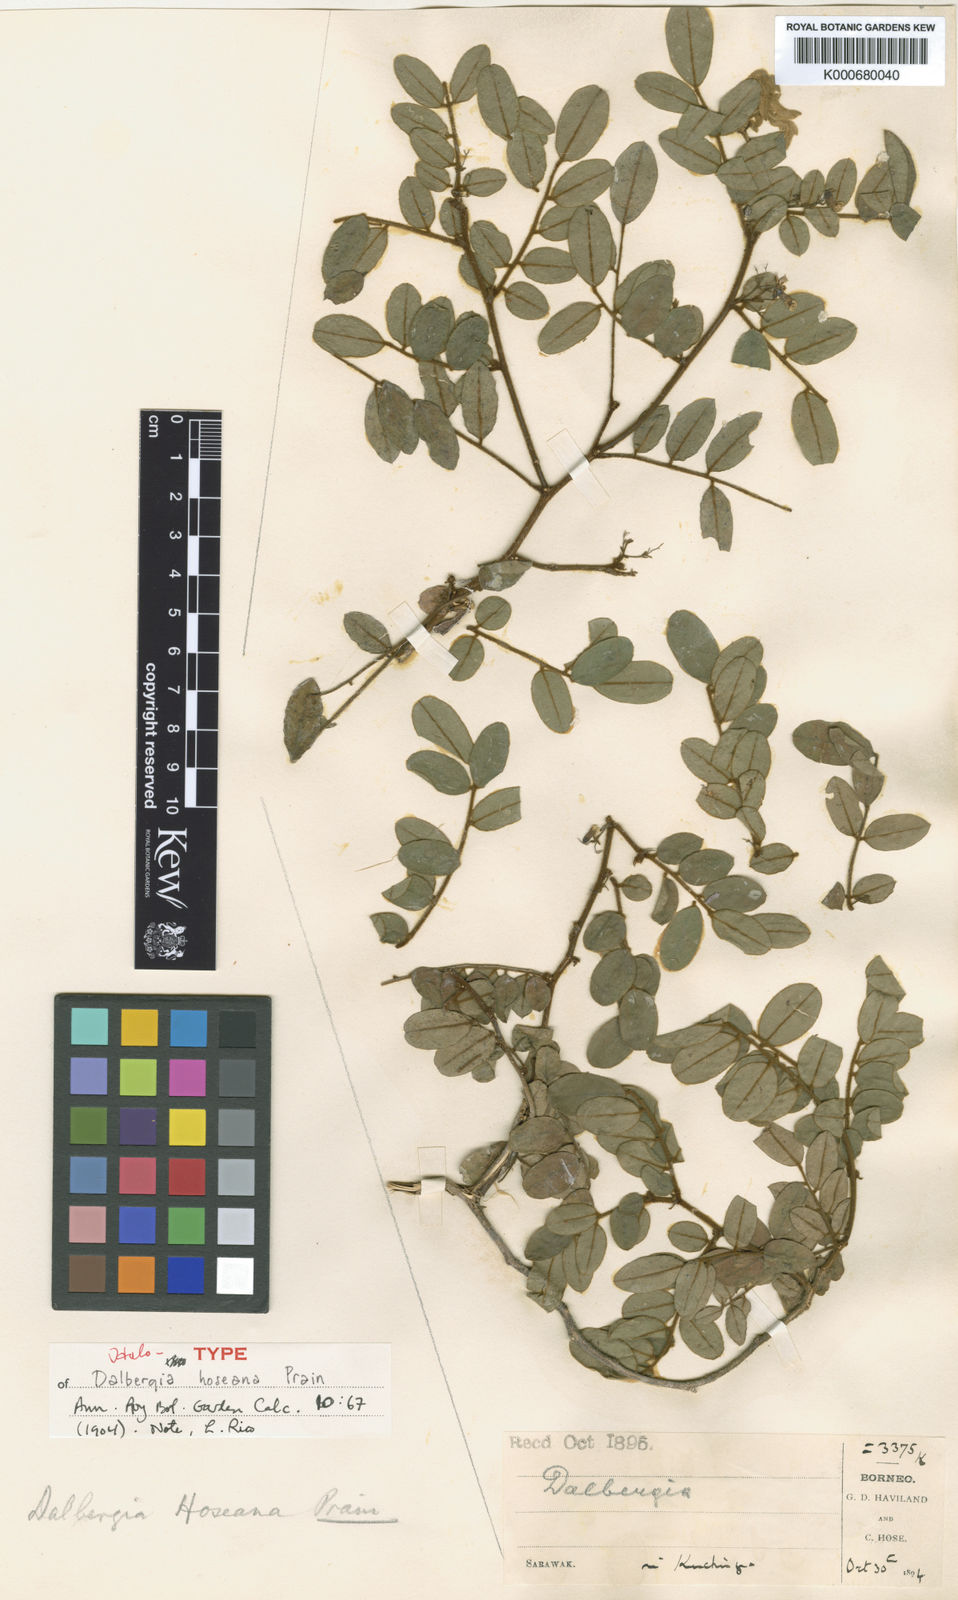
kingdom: Plantae
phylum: Tracheophyta
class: Magnoliopsida
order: Fabales
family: Fabaceae
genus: Dalbergia
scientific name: Dalbergia velutina
